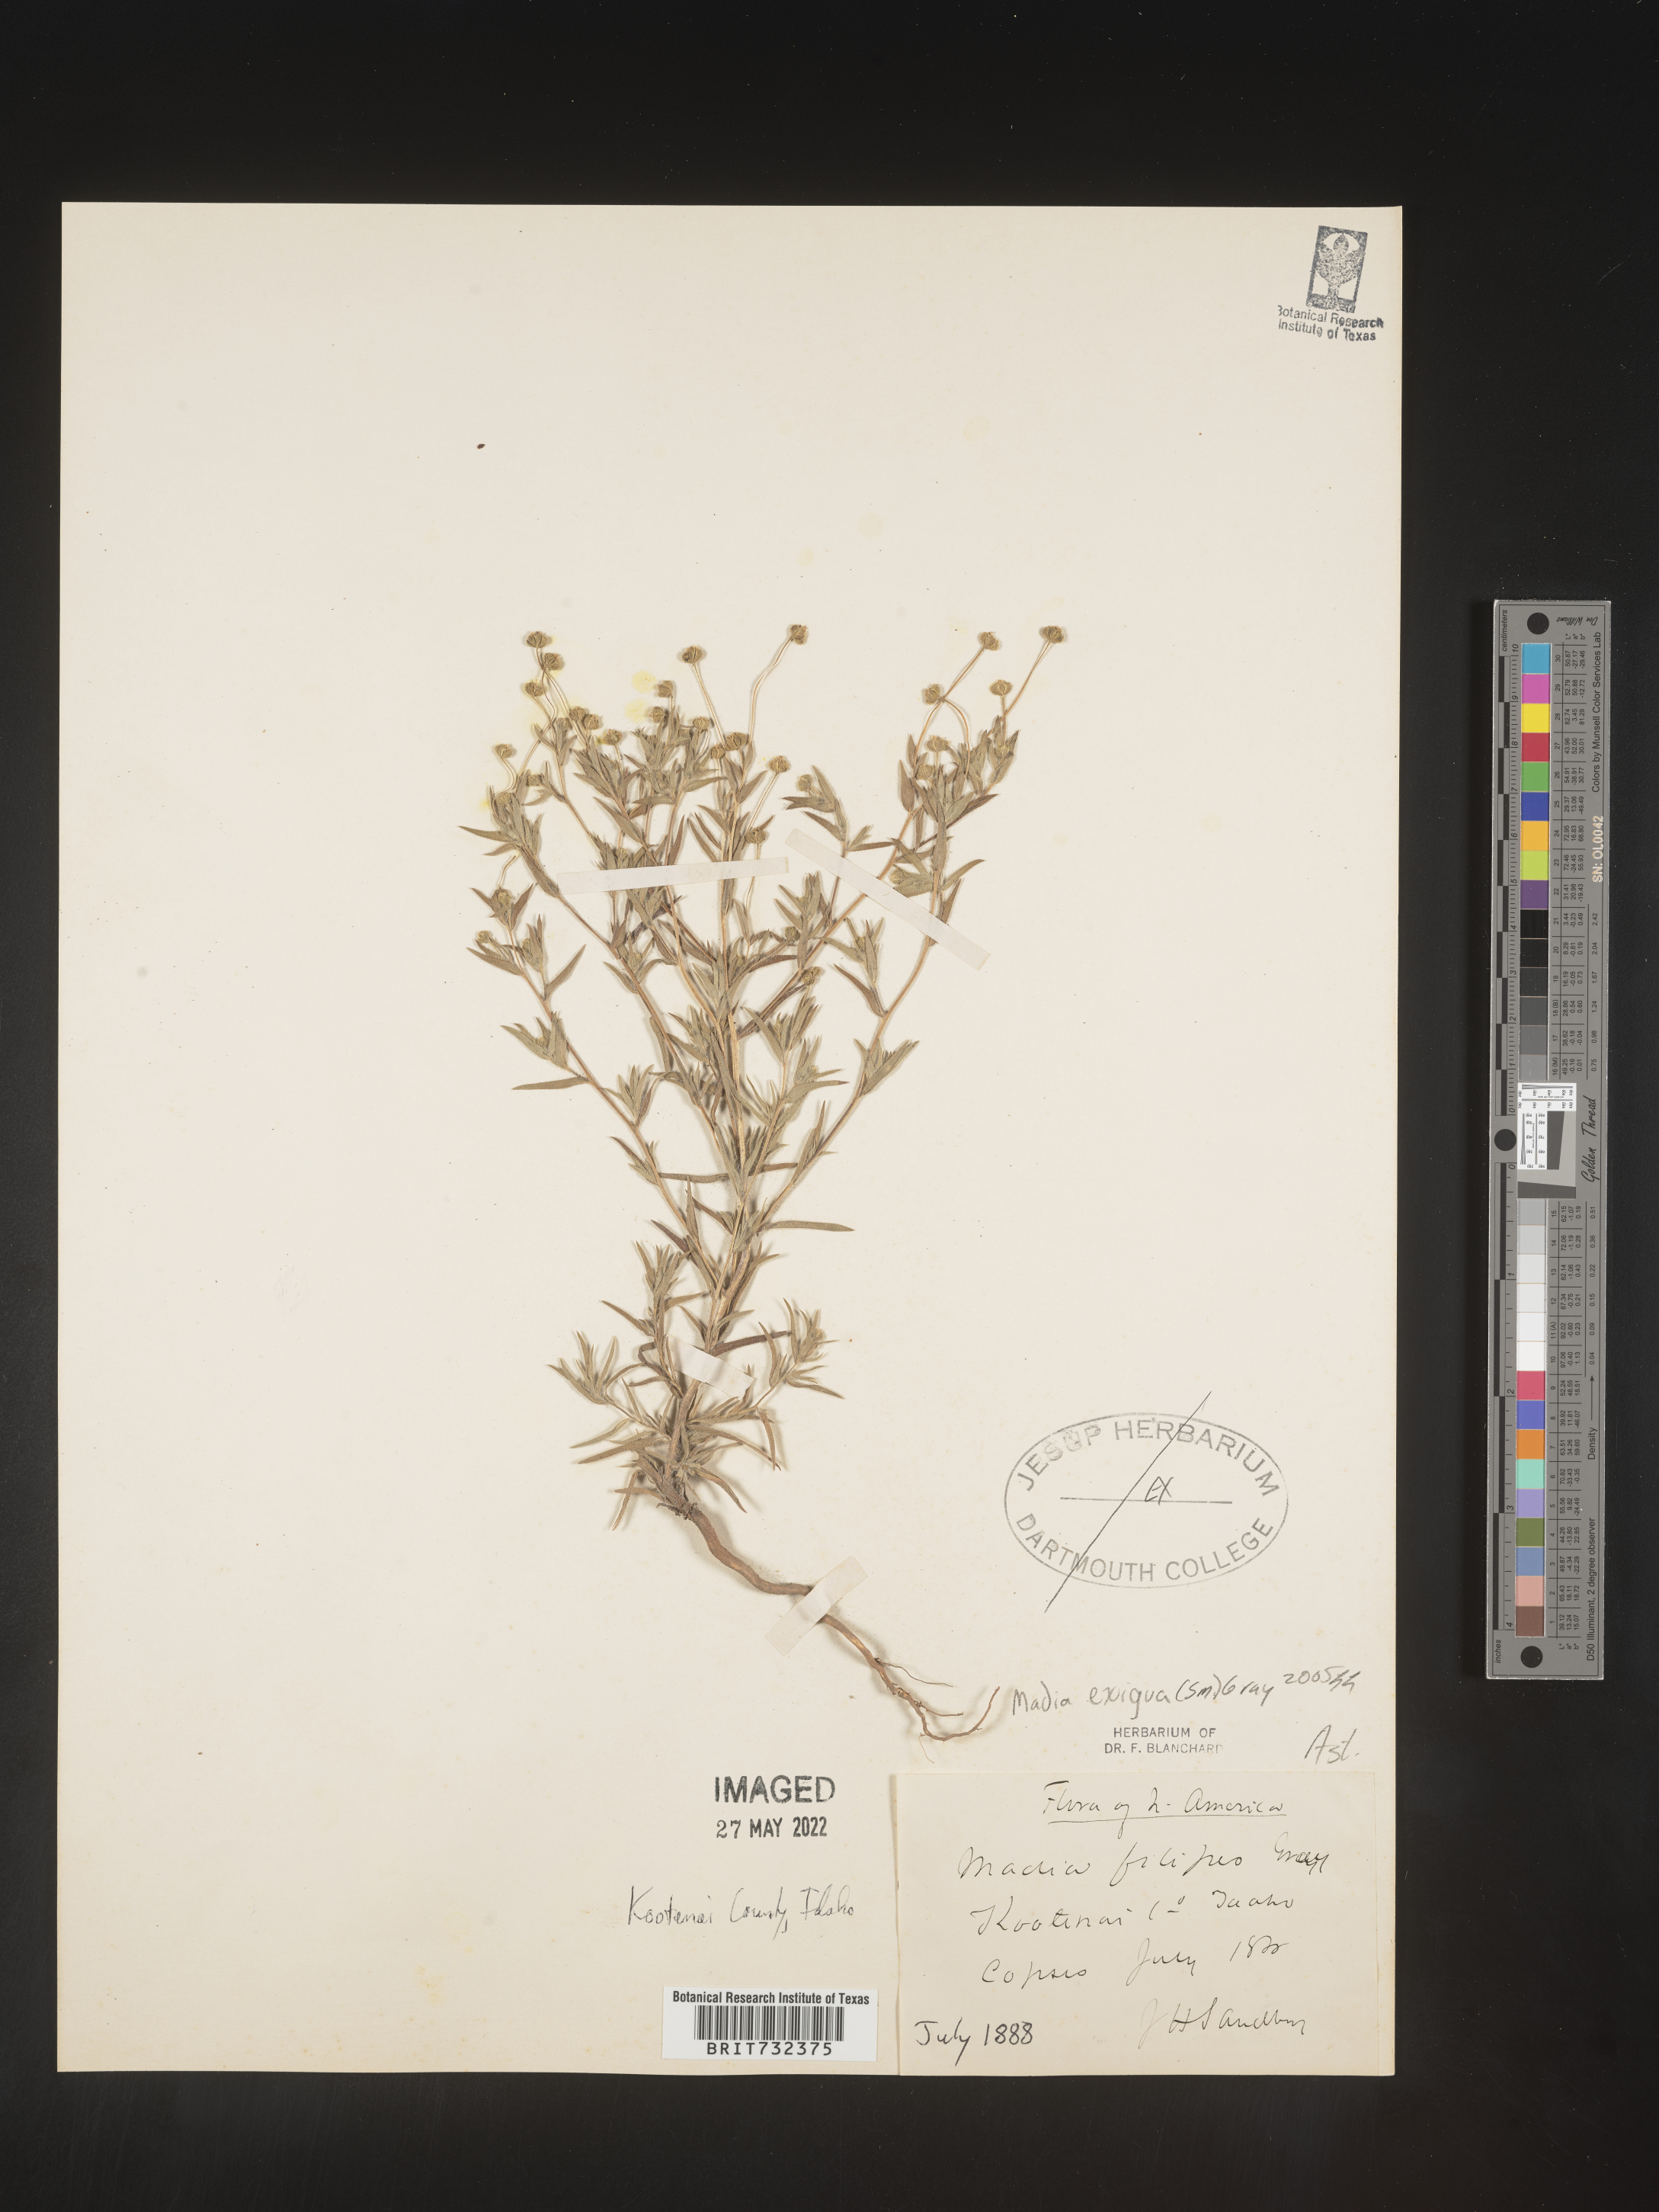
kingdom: Plantae
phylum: Tracheophyta
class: Magnoliopsida
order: Asterales
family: Asteraceae
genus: Madia
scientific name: Madia
